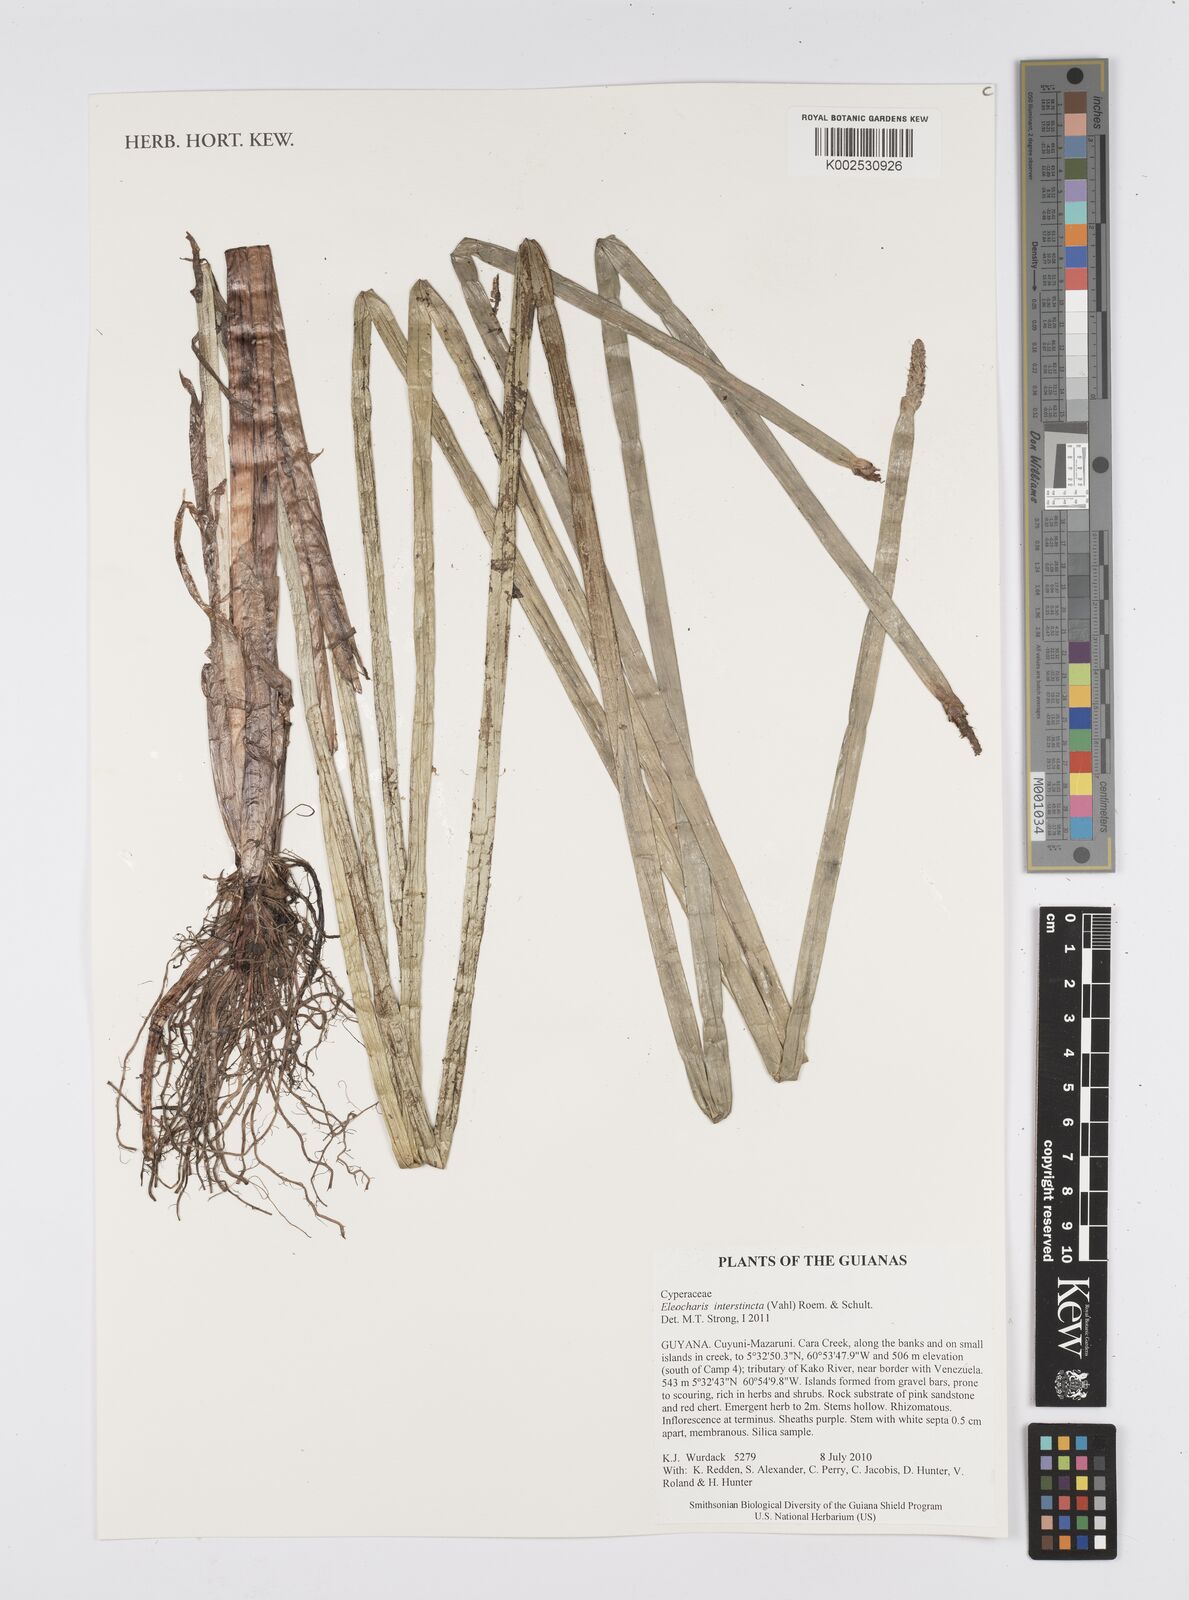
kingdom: Plantae
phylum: Tracheophyta
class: Liliopsida
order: Poales
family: Cyperaceae
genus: Eleocharis
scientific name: Eleocharis interstincta
